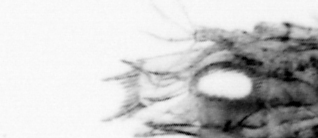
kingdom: Animalia
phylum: Arthropoda
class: Malacostraca
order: Decapoda
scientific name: Decapoda
